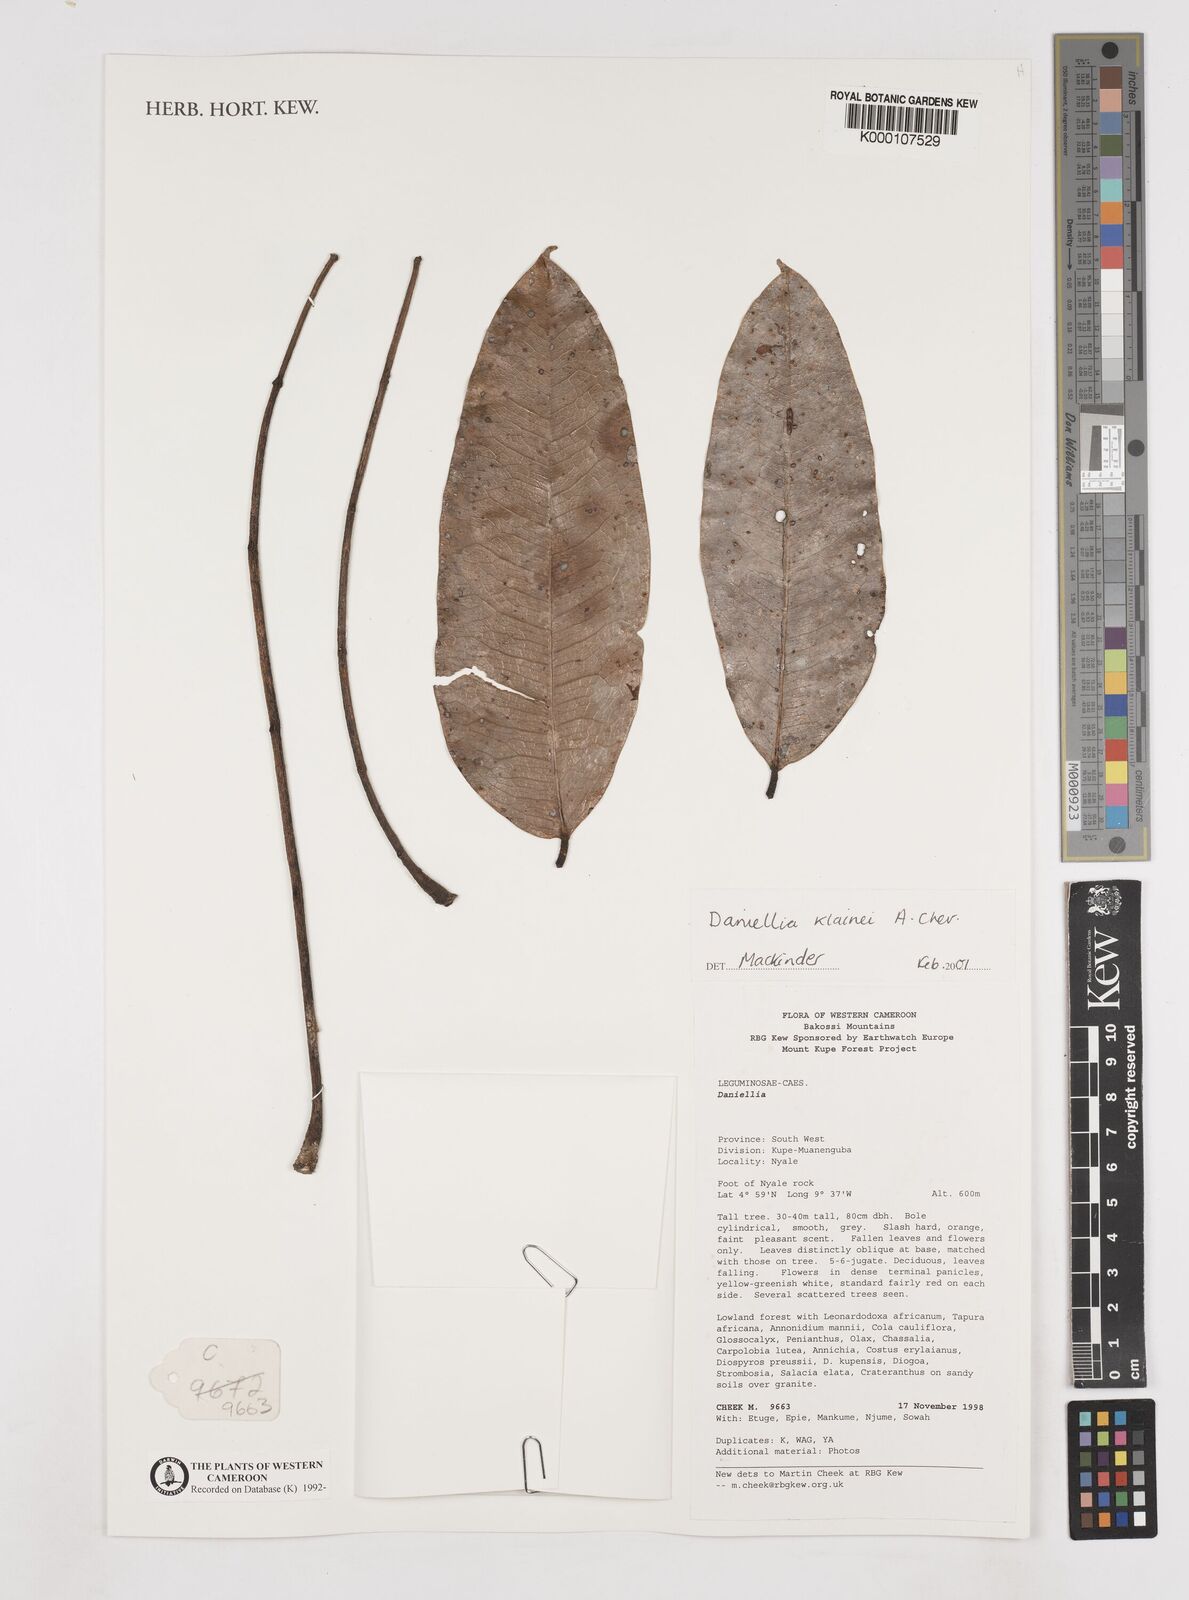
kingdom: Plantae
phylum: Tracheophyta
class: Magnoliopsida
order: Fabales
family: Fabaceae
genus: Daniellia
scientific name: Daniellia klainei
